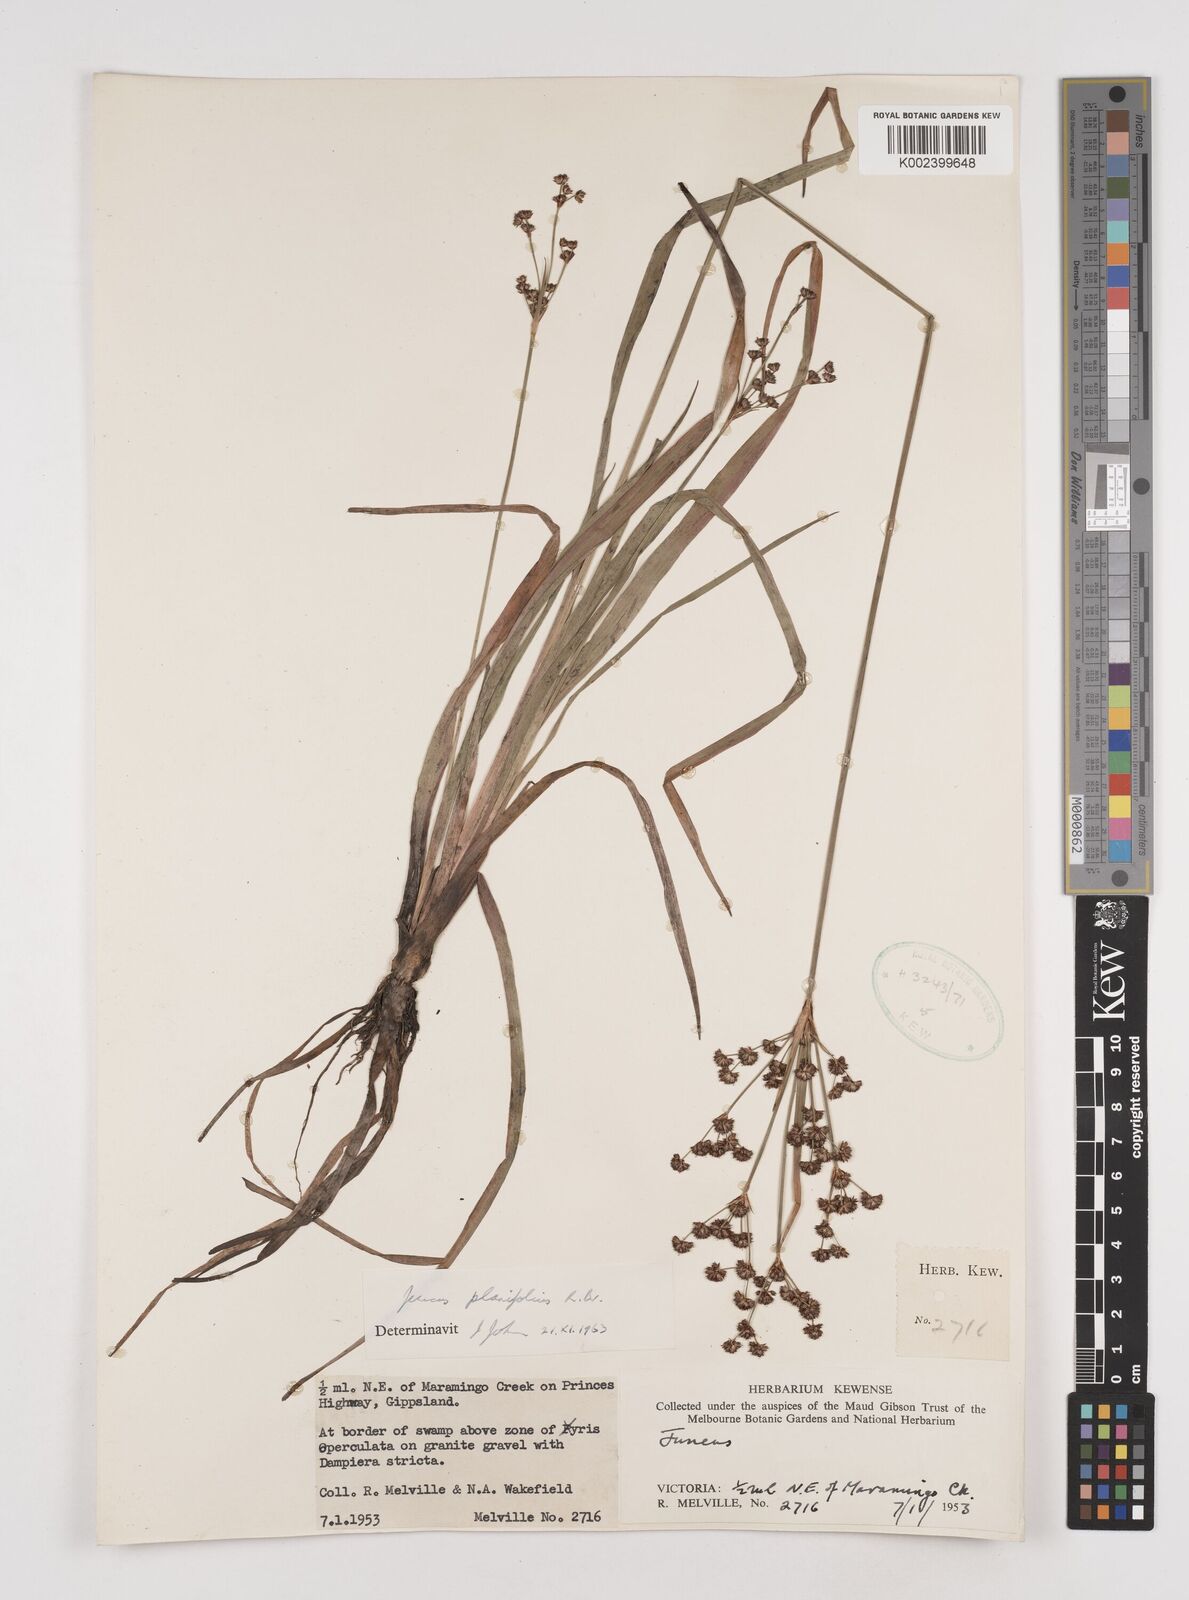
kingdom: Plantae
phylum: Tracheophyta
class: Liliopsida
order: Poales
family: Juncaceae
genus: Juncus
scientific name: Juncus planifolius
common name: Broadleaf rush
